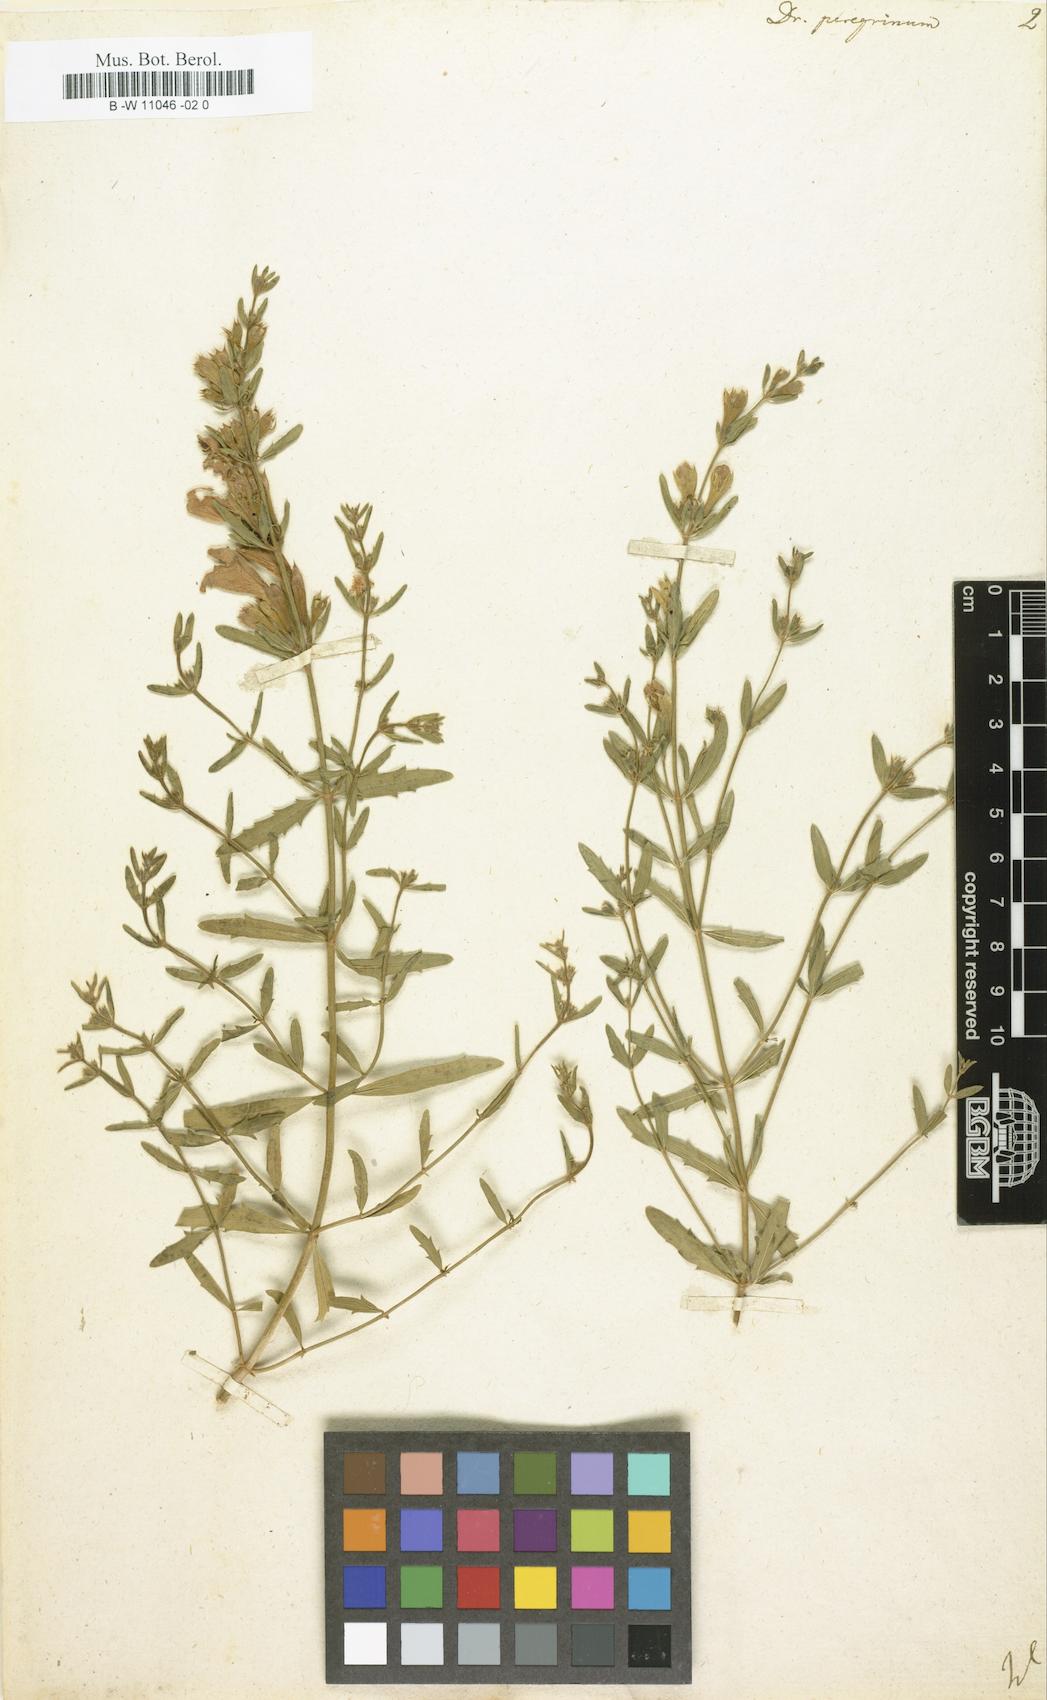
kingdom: Plantae
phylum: Tracheophyta
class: Magnoliopsida
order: Lamiales
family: Lamiaceae
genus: Dracocephalum
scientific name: Dracocephalum peregrinum
